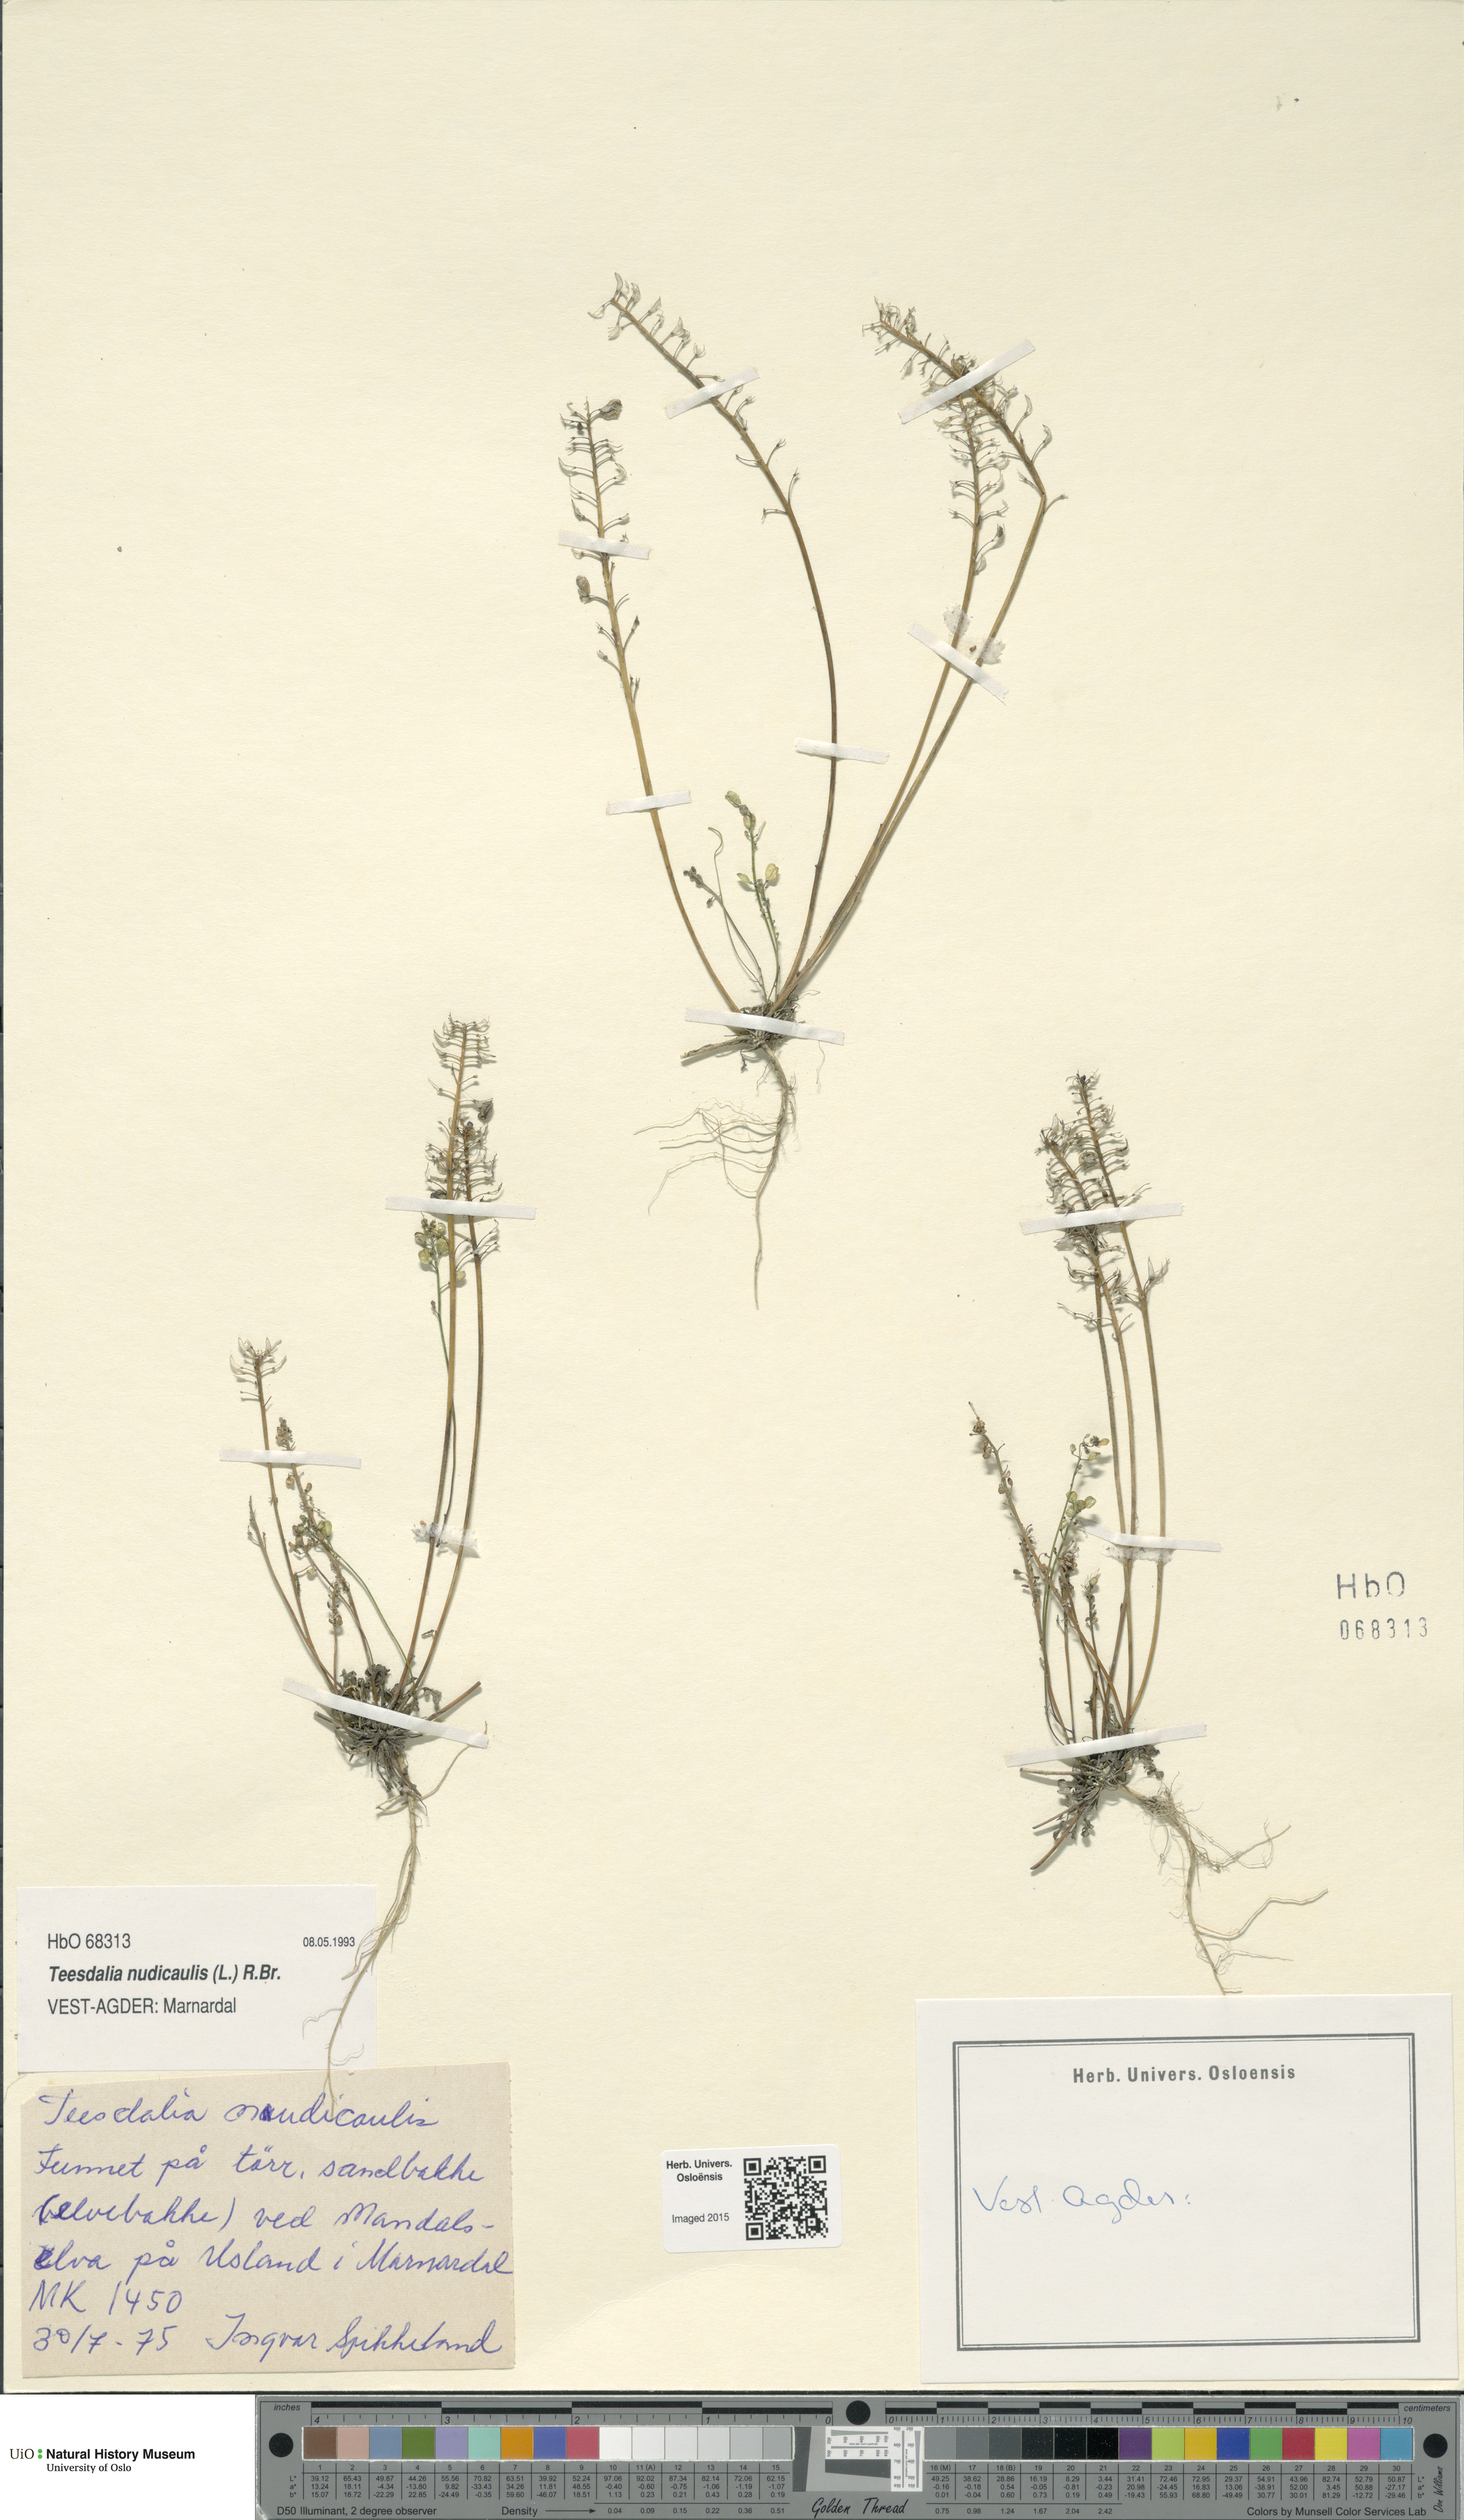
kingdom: Plantae
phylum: Tracheophyta
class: Magnoliopsida
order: Brassicales
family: Brassicaceae
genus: Teesdalia
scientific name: Teesdalia nudicaulis
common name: Shepherd's cress
